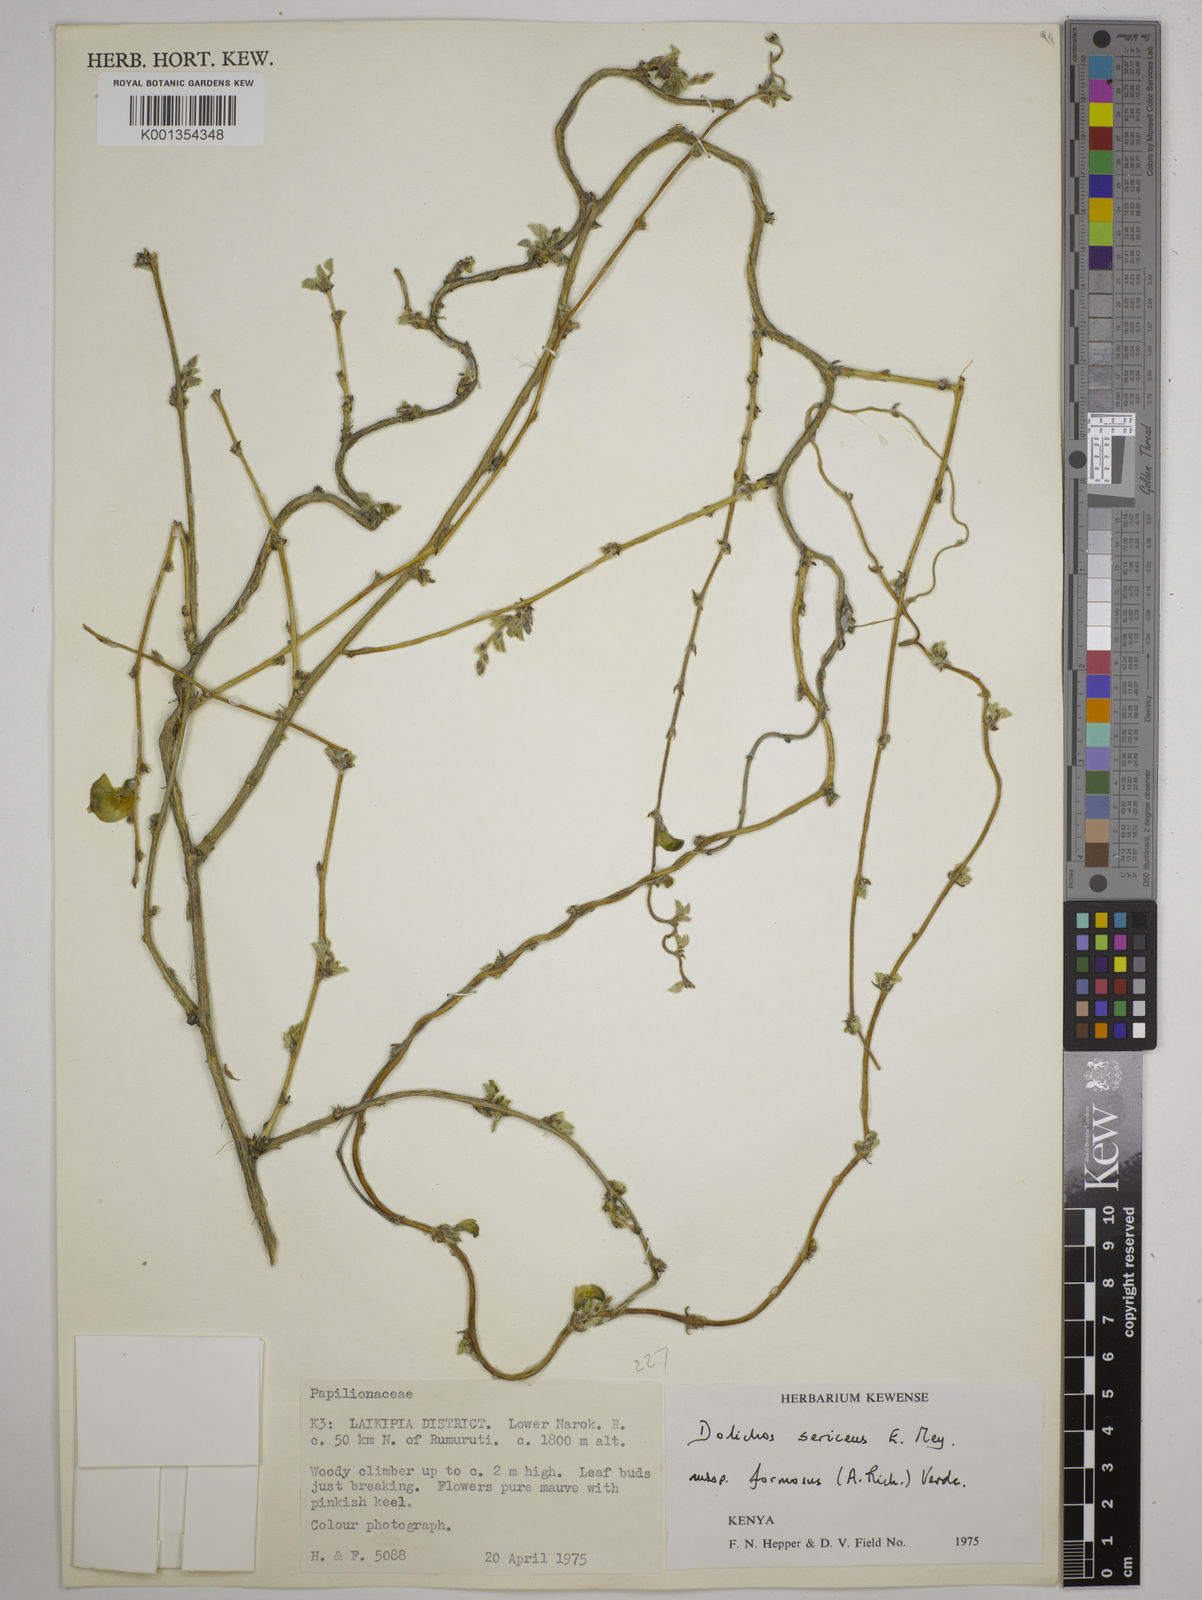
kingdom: Plantae
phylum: Tracheophyta
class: Magnoliopsida
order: Fabales
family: Fabaceae
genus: Dolichos
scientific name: Dolichos
